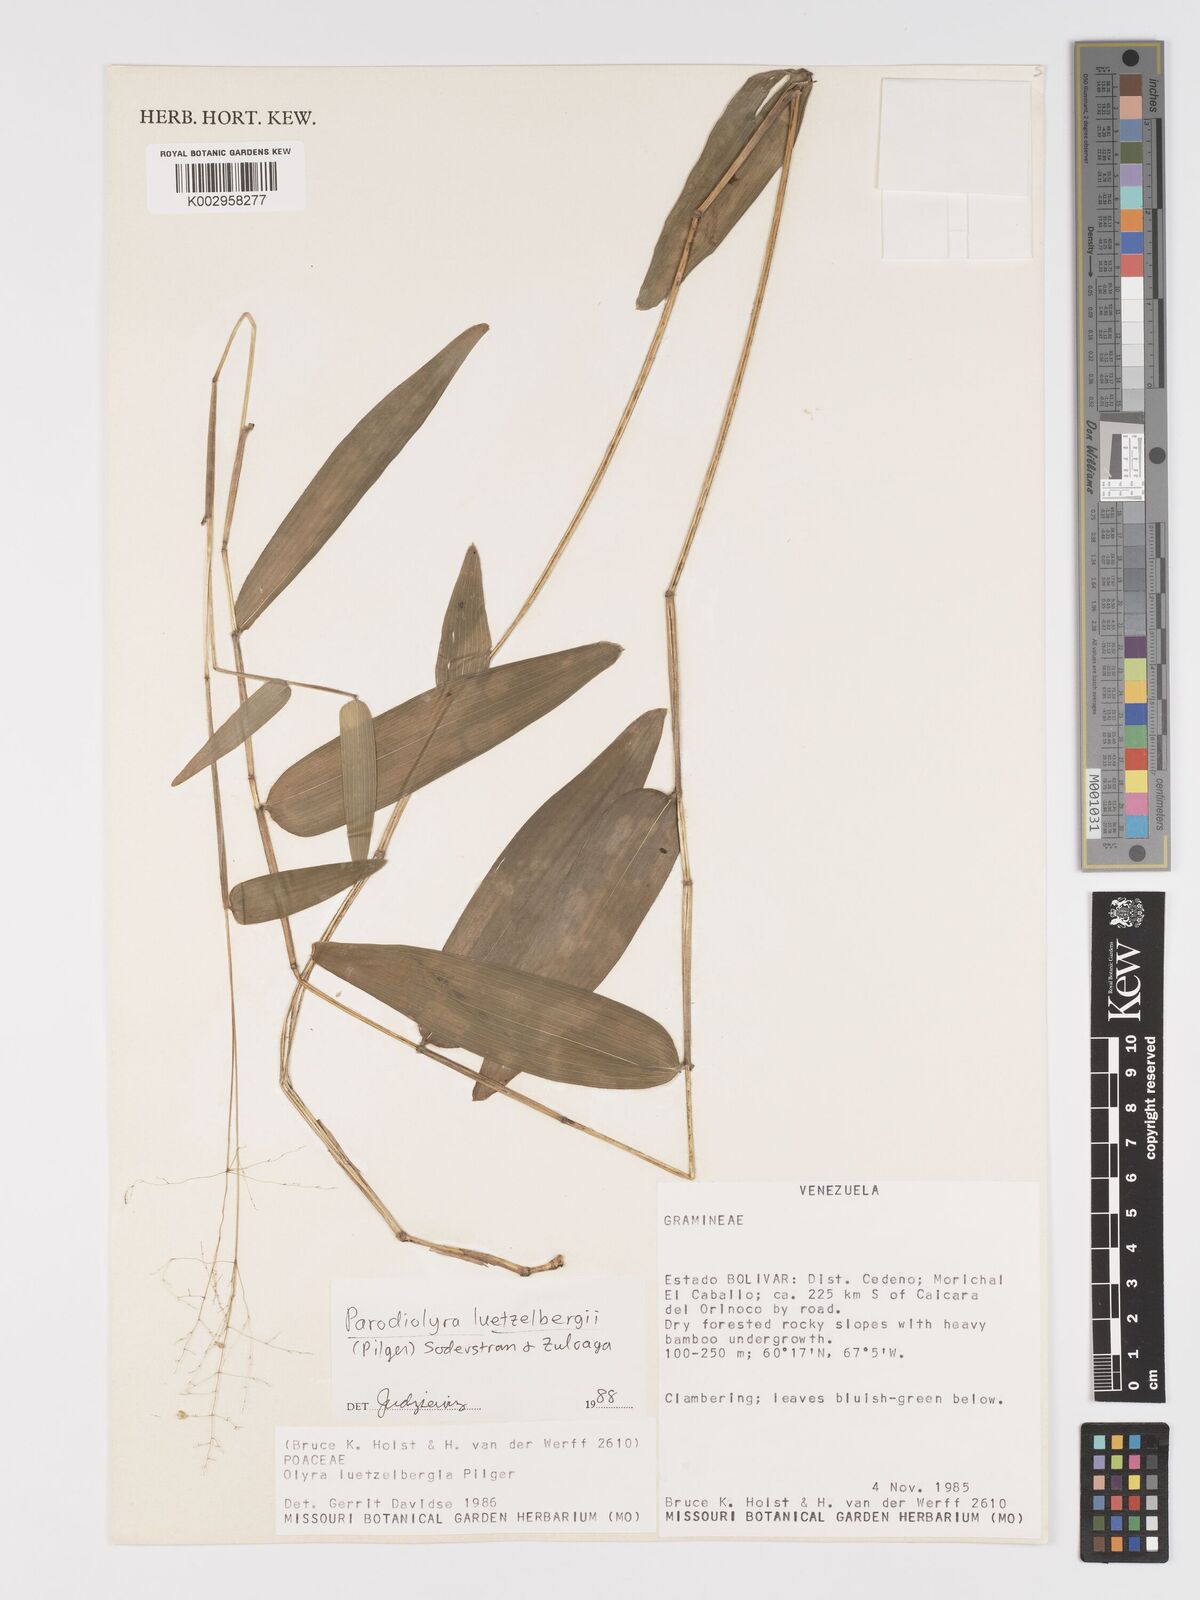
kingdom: Plantae
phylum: Tracheophyta
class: Liliopsida
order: Poales
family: Poaceae
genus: Parodiolyra
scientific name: Parodiolyra luetzelburgii
